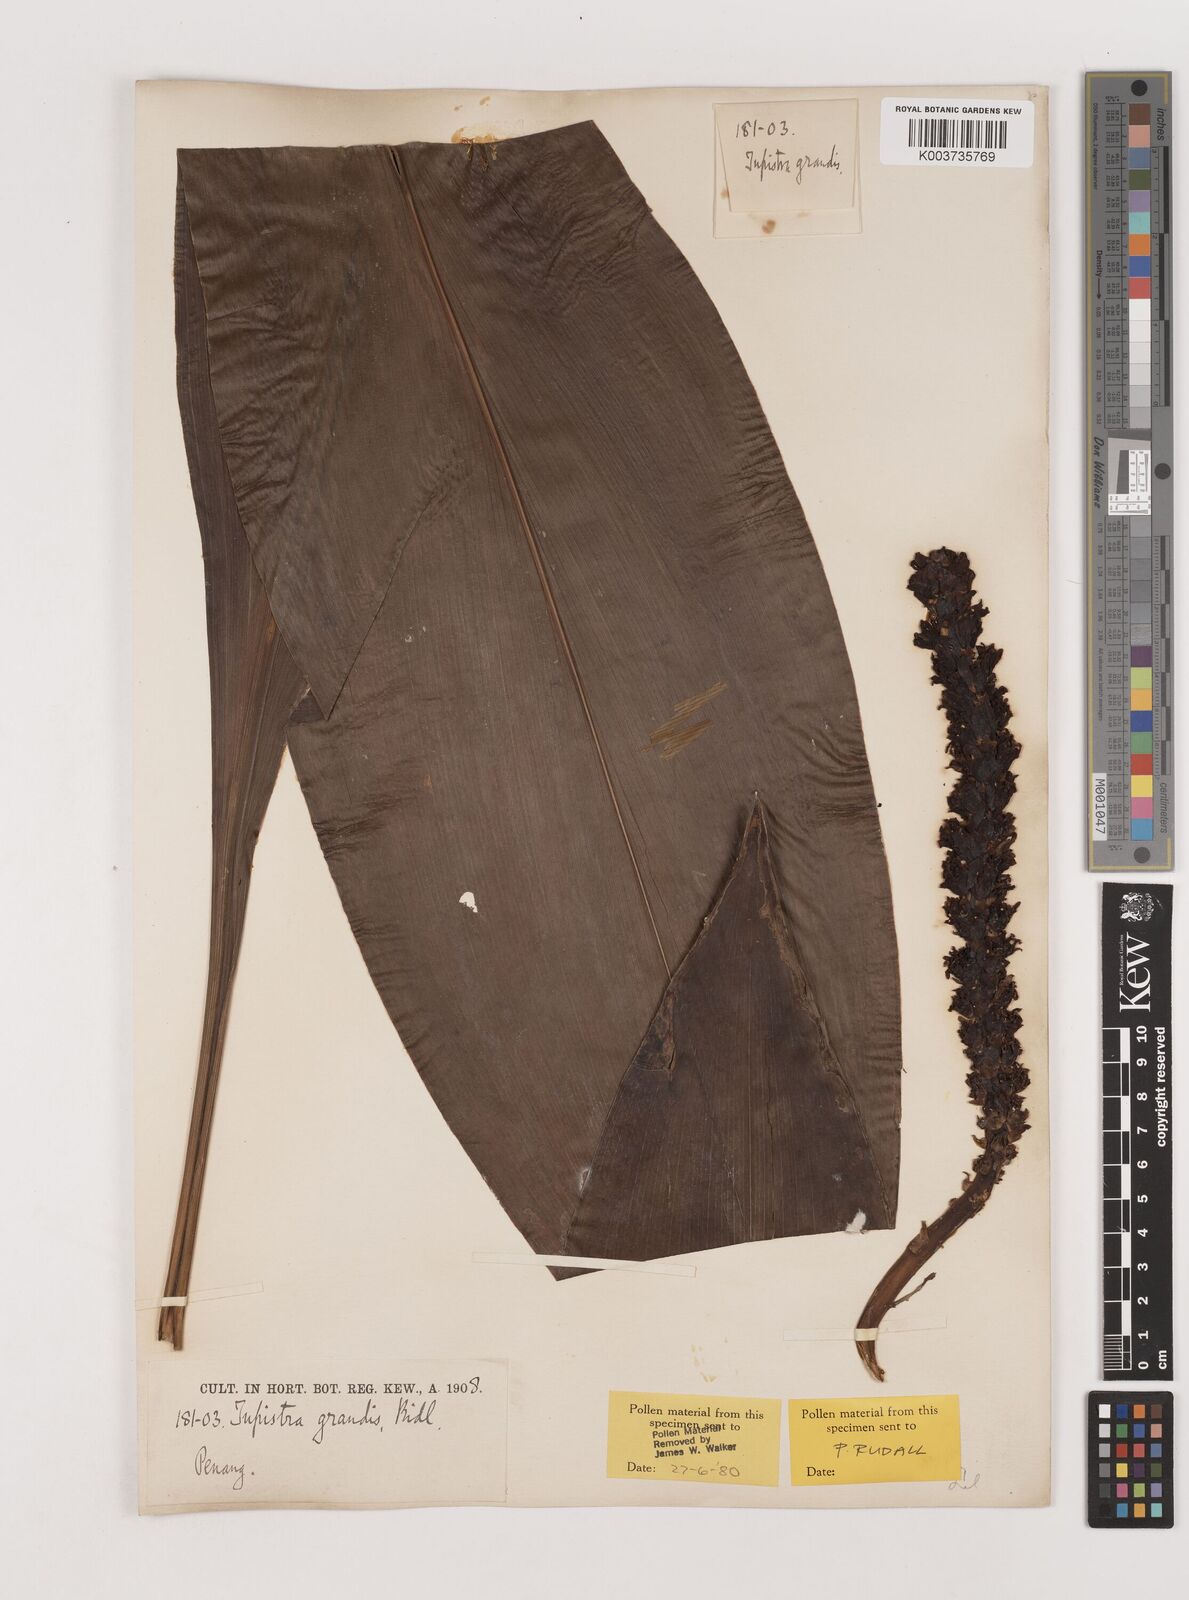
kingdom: Plantae
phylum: Tracheophyta
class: Liliopsida
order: Asparagales
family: Asparagaceae
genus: Tupistra
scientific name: Tupistra grandis
